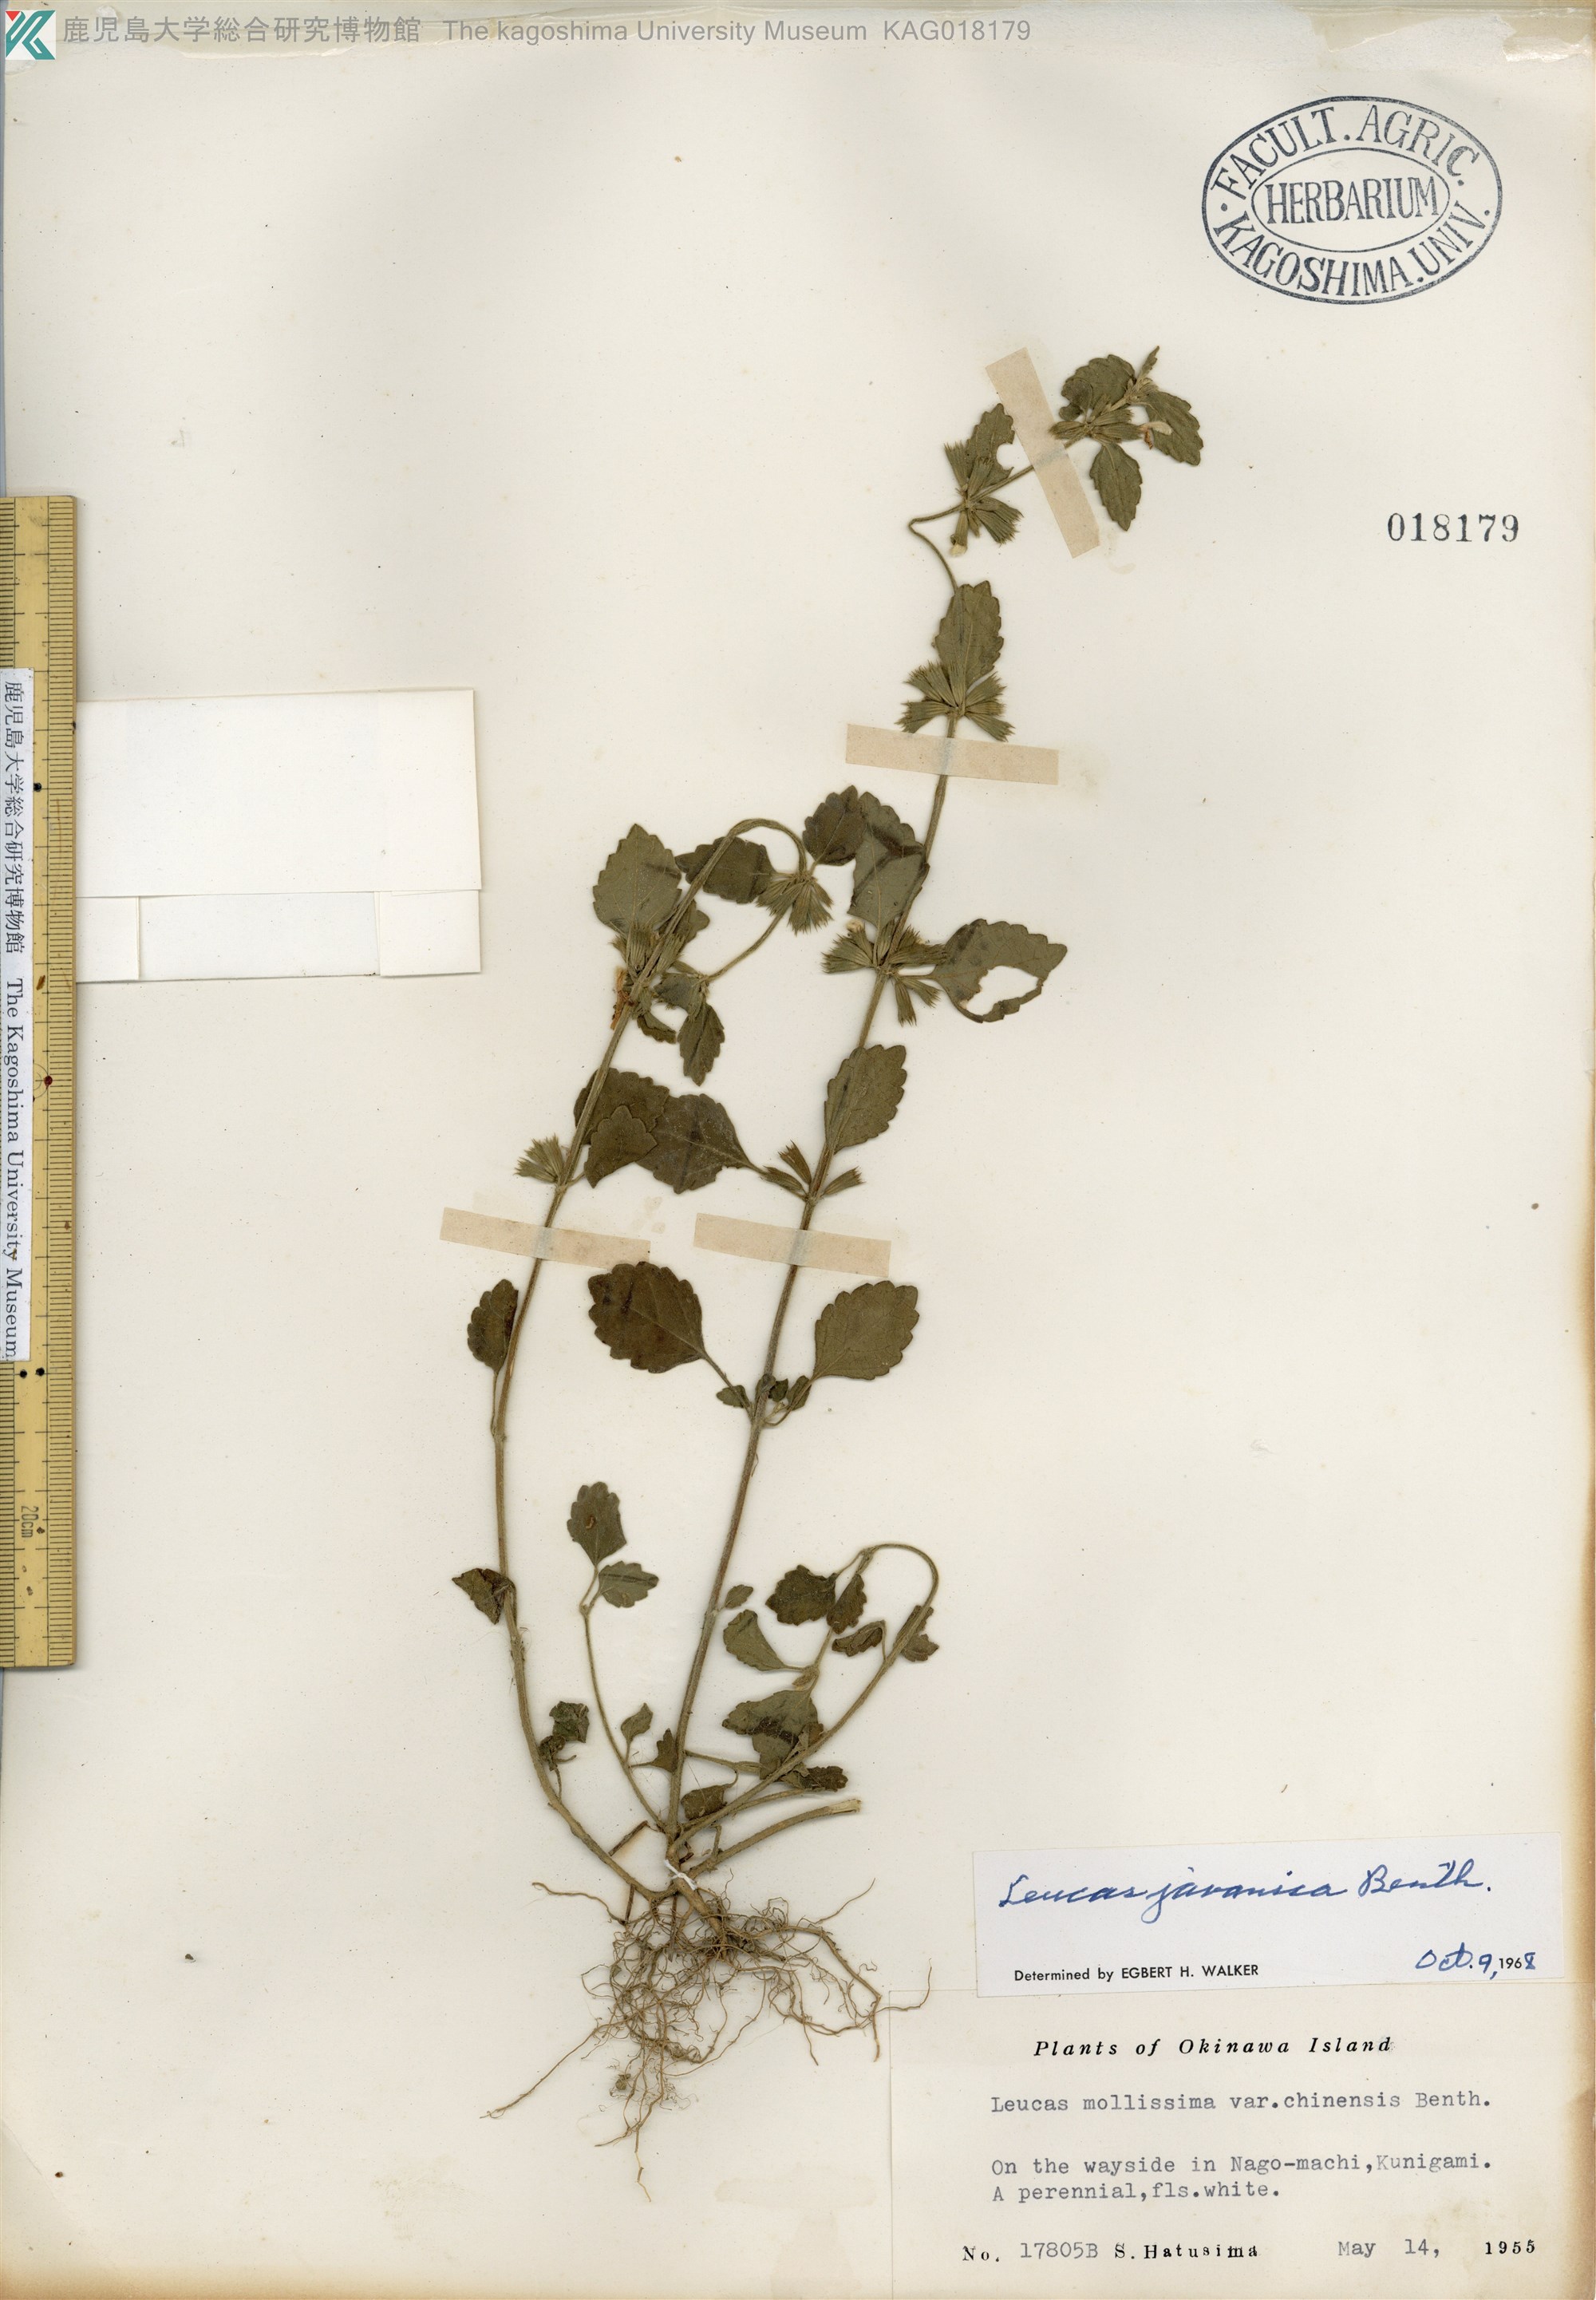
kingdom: Plantae
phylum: Tracheophyta
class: Magnoliopsida
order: Lamiales
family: Lamiaceae
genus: Leucas
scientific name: Leucas chinensis
